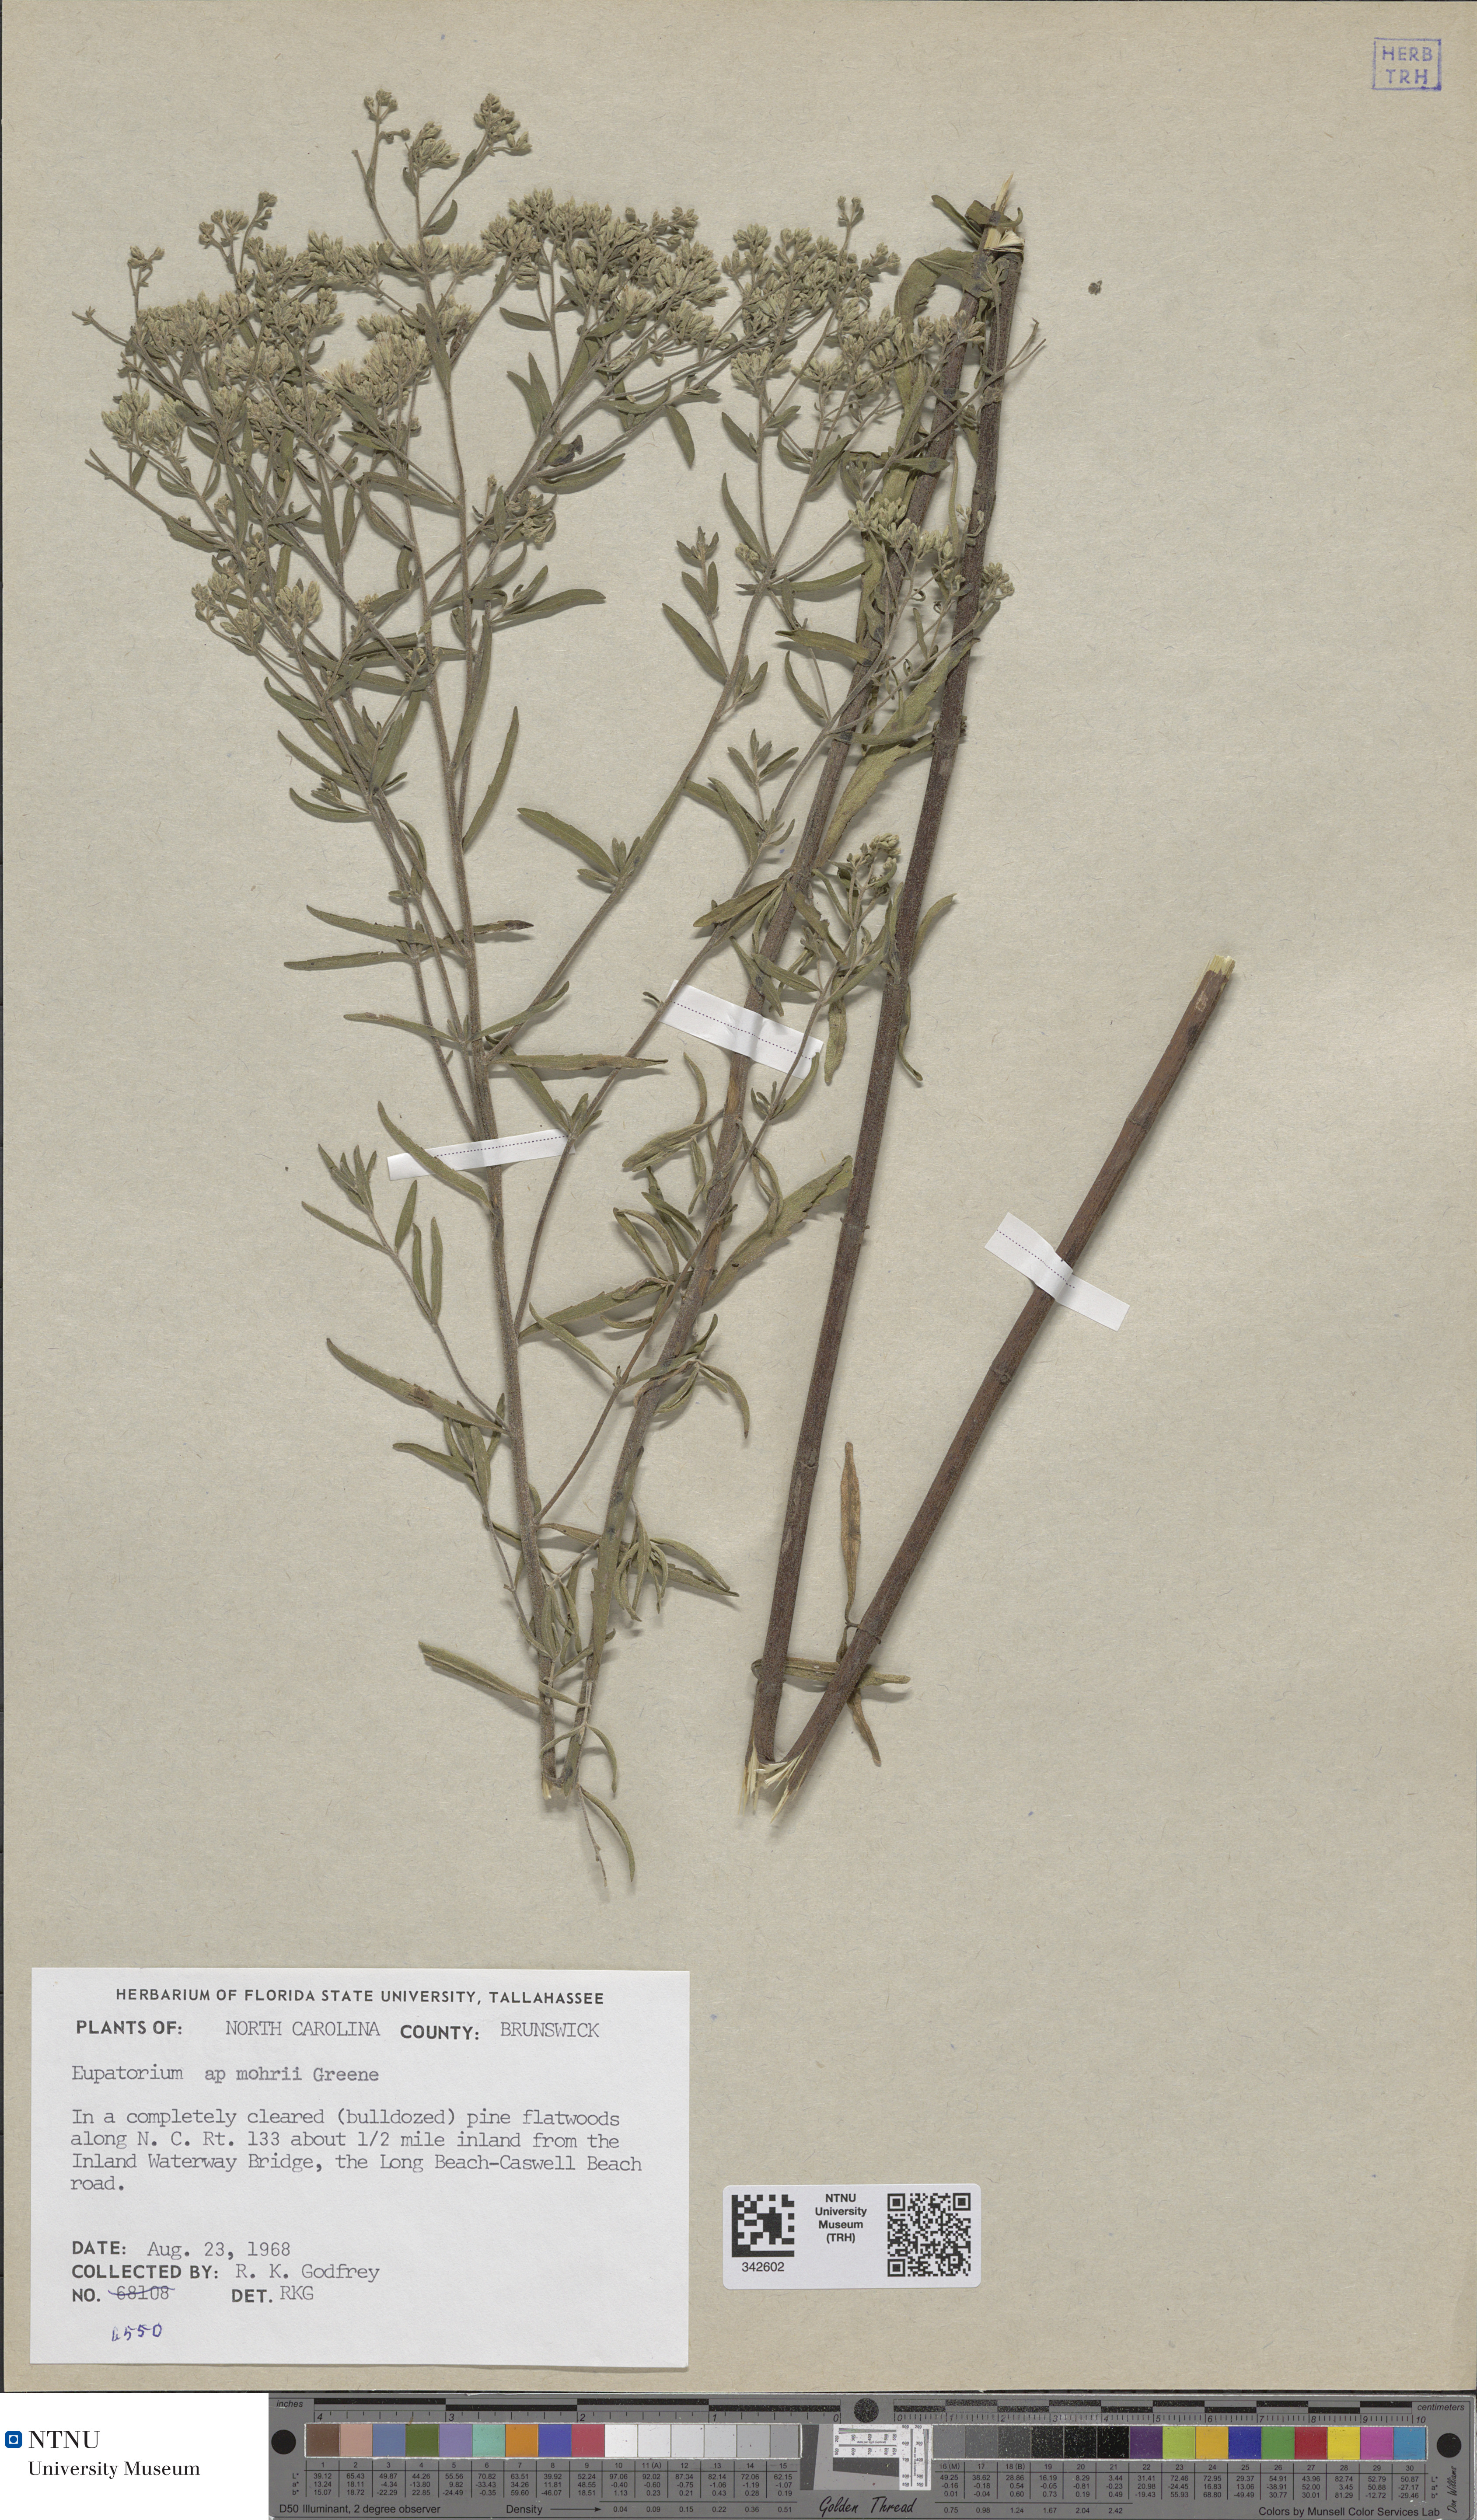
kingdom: Plantae
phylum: Tracheophyta
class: Magnoliopsida
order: Asterales
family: Asteraceae
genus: Eupatorium
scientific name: Eupatorium amorii
